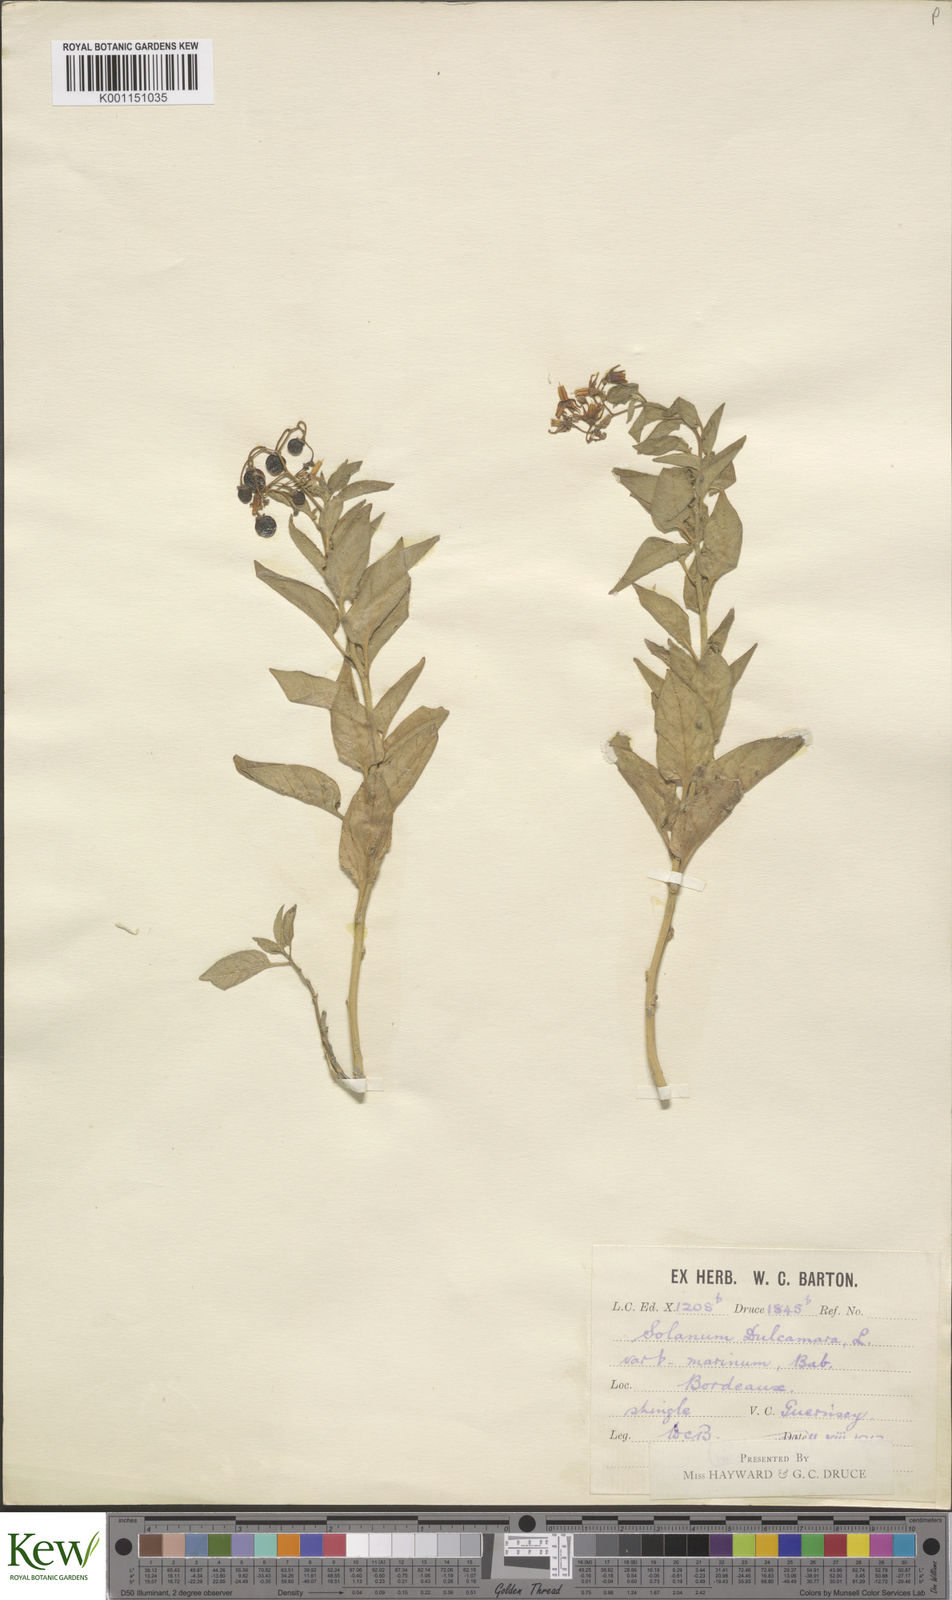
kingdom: Plantae
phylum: Tracheophyta
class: Magnoliopsida
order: Solanales
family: Solanaceae
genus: Solanum
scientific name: Solanum dulcamara
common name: Climbing nightshade
